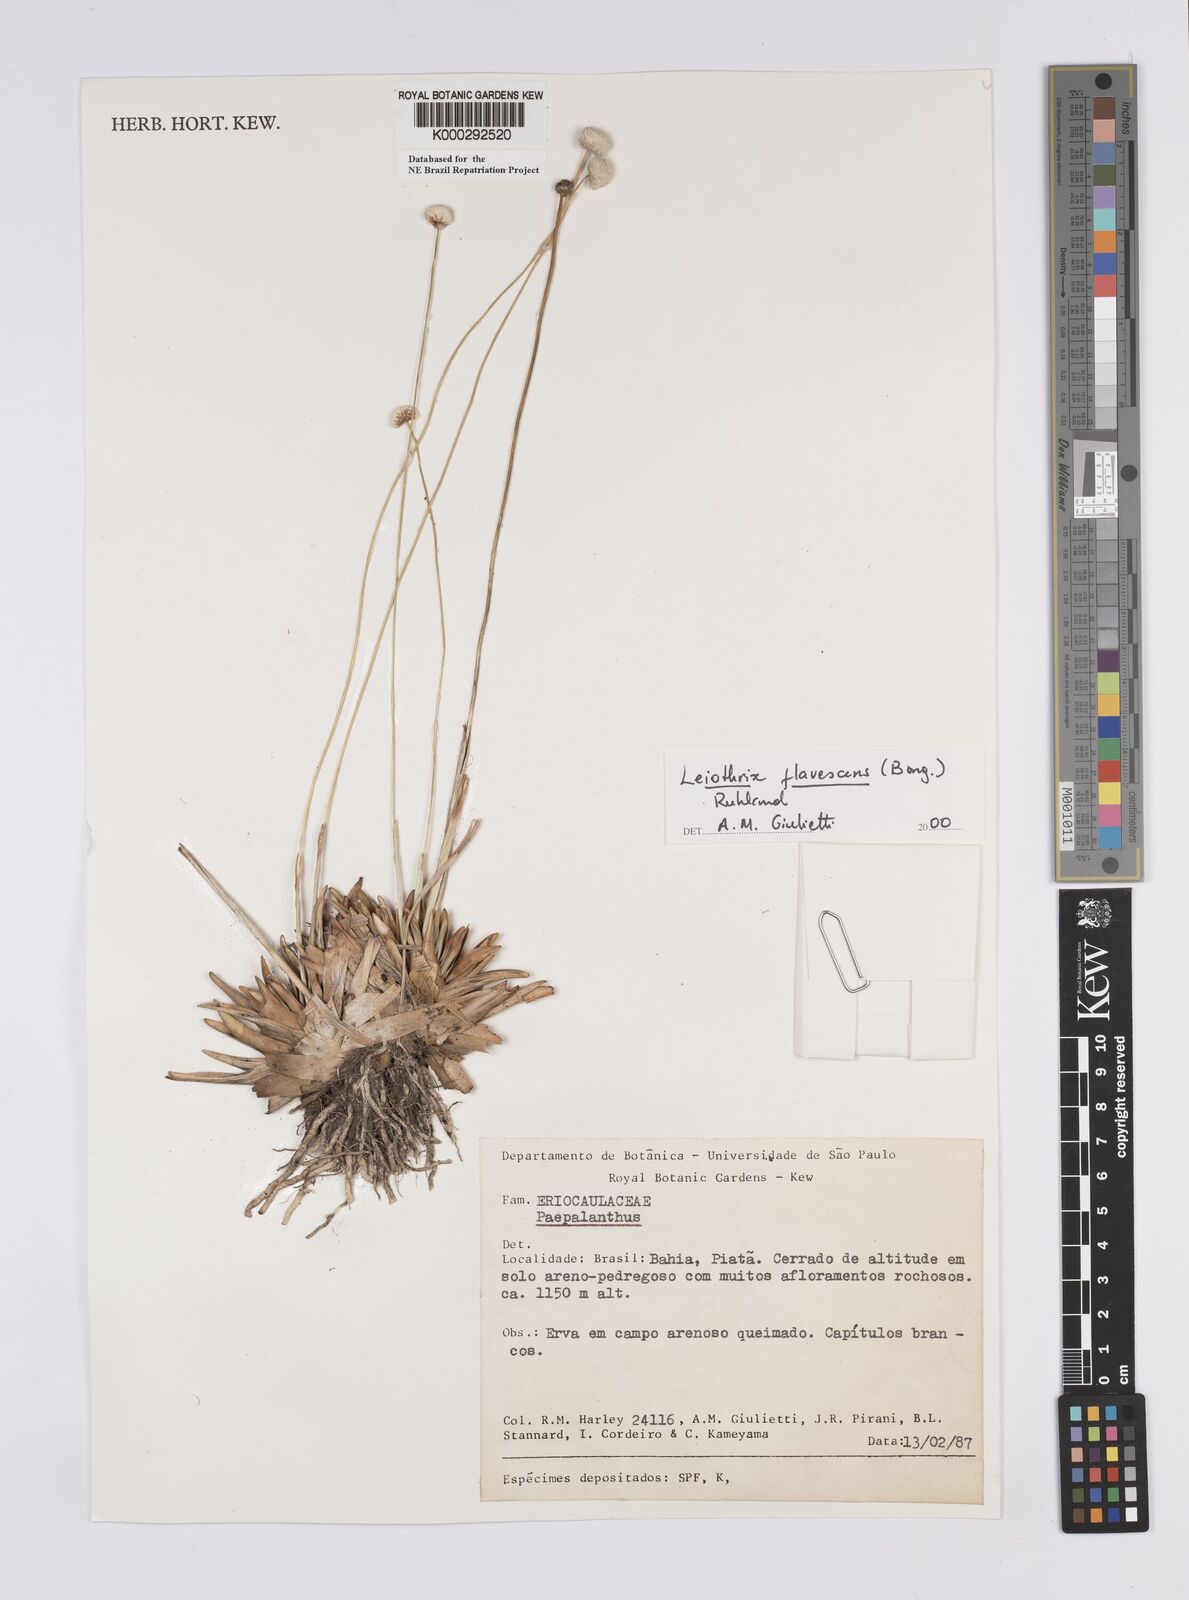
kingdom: Plantae
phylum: Tracheophyta
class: Liliopsida
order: Poales
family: Eriocaulaceae
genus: Leiothrix
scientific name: Leiothrix flavescens
